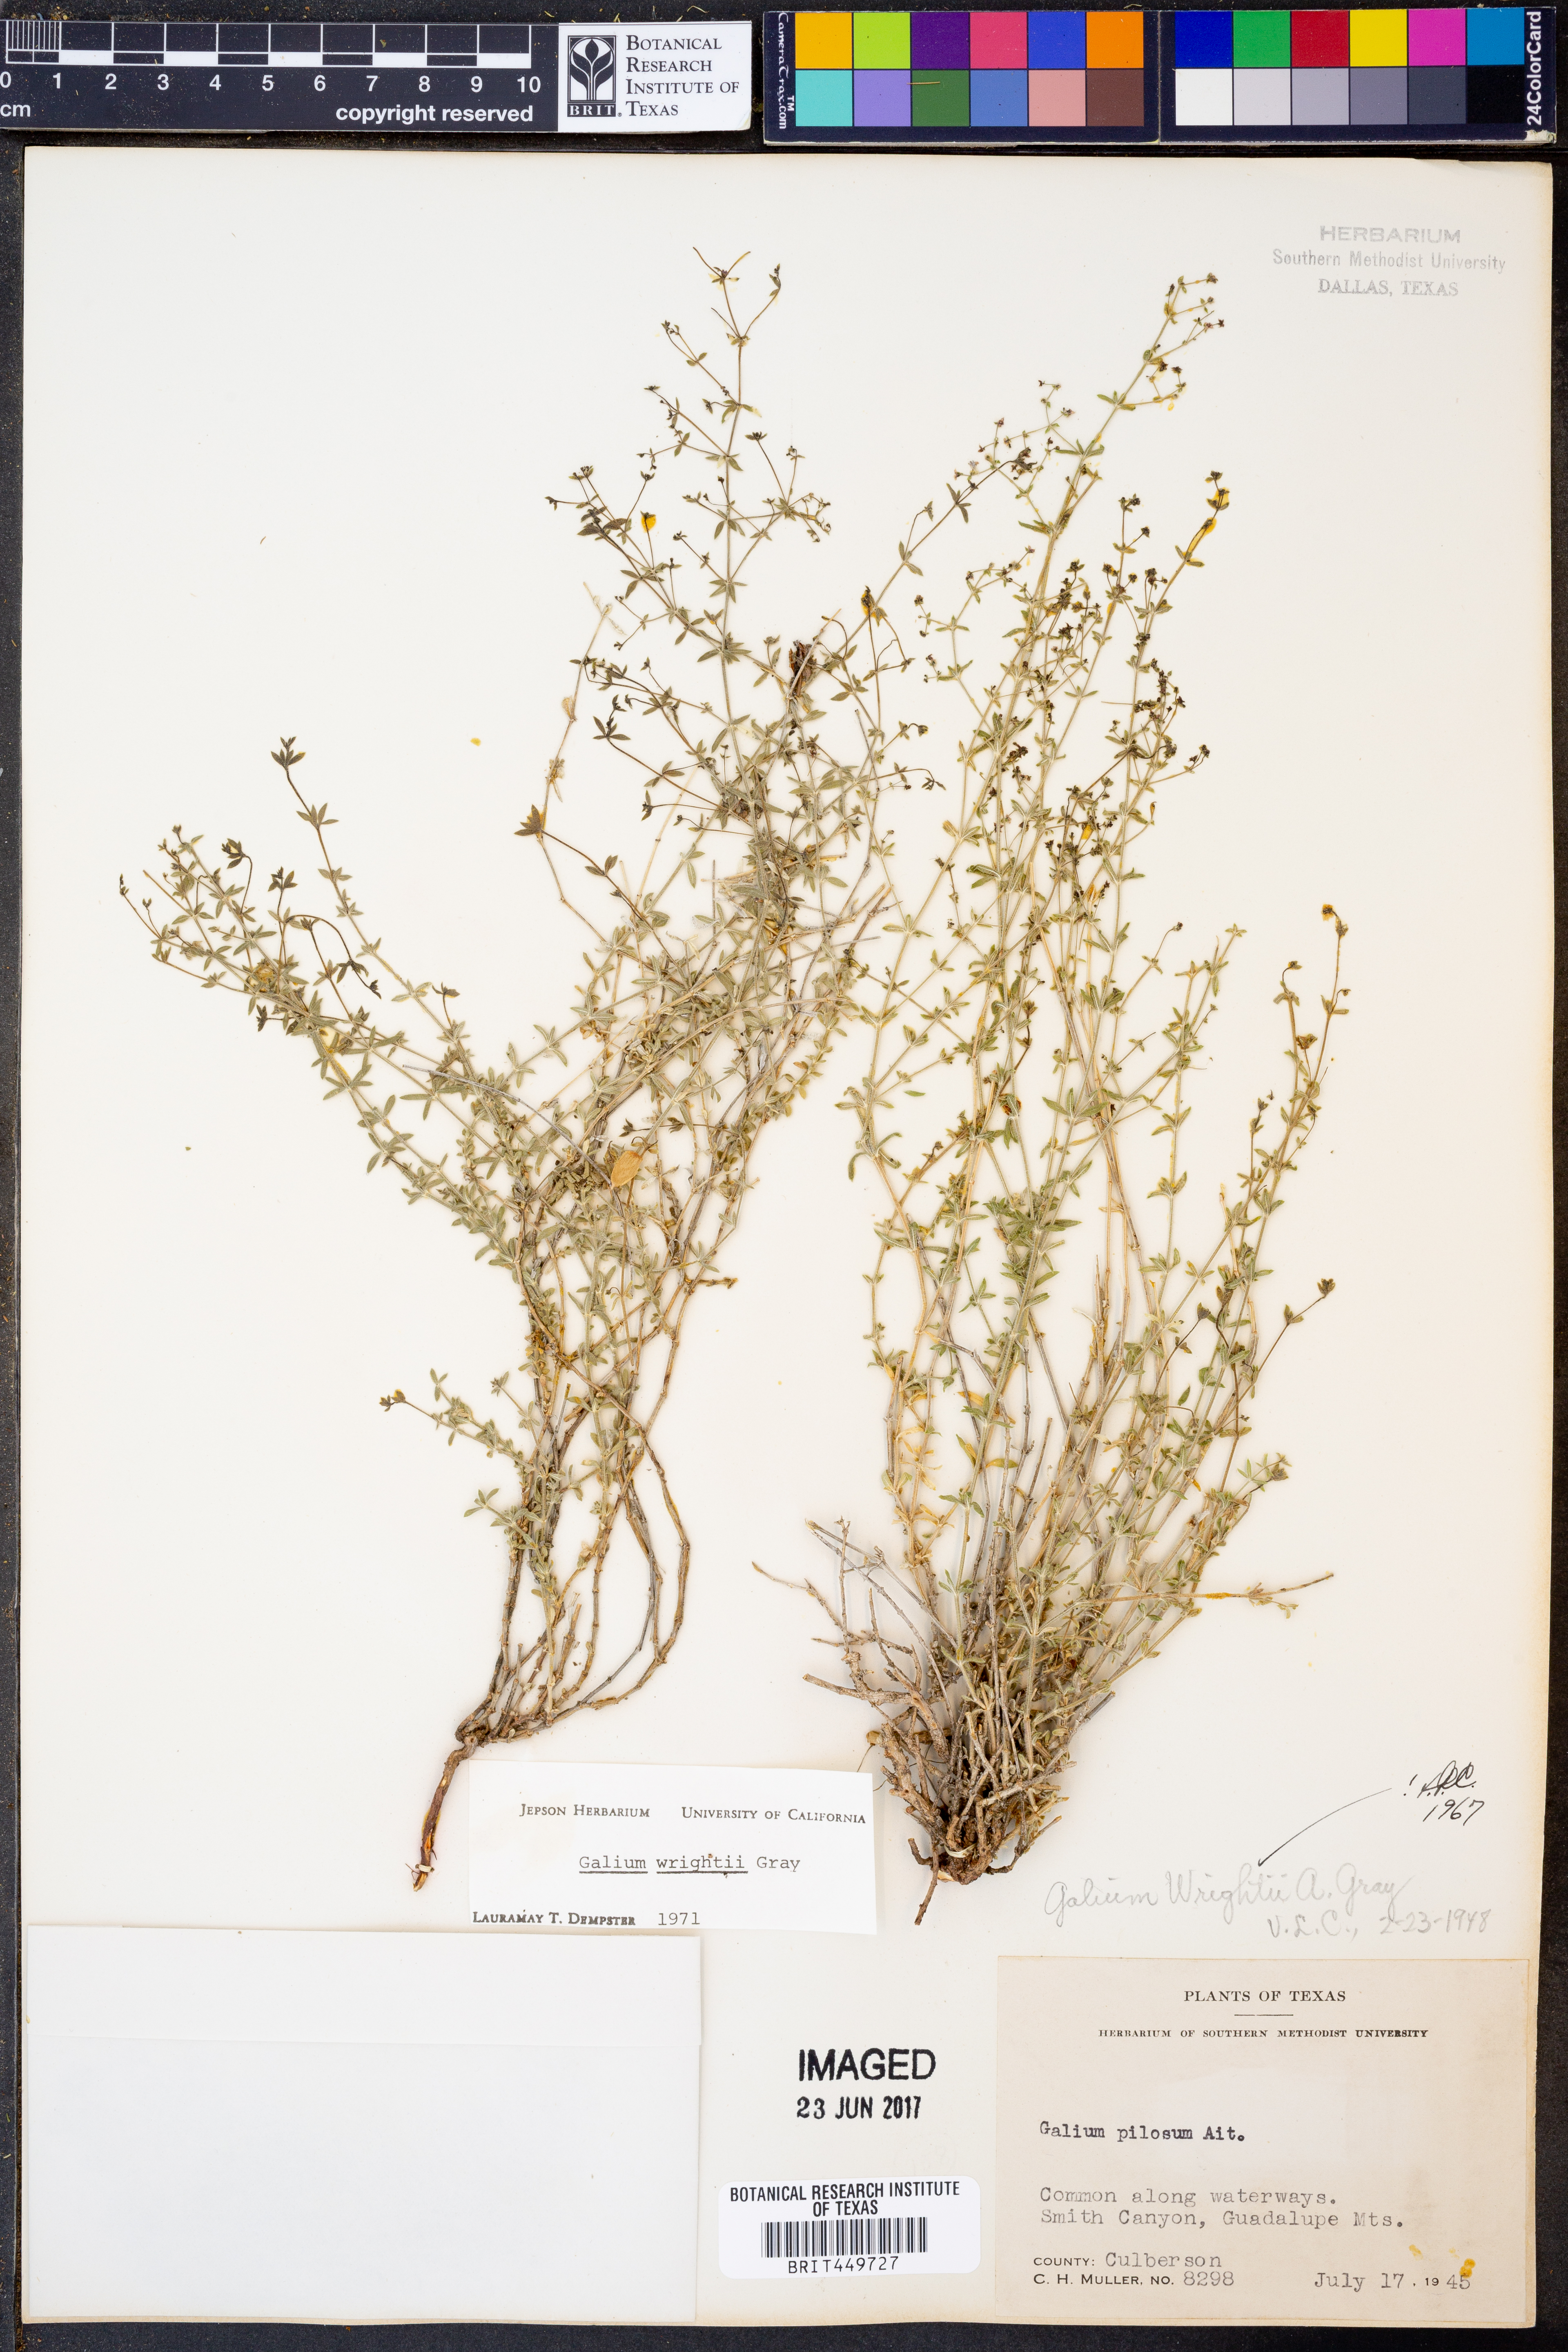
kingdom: Plantae
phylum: Tracheophyta
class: Magnoliopsida
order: Gentianales
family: Rubiaceae
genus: Galium
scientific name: Galium pilosum
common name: Hairy bedstraw
